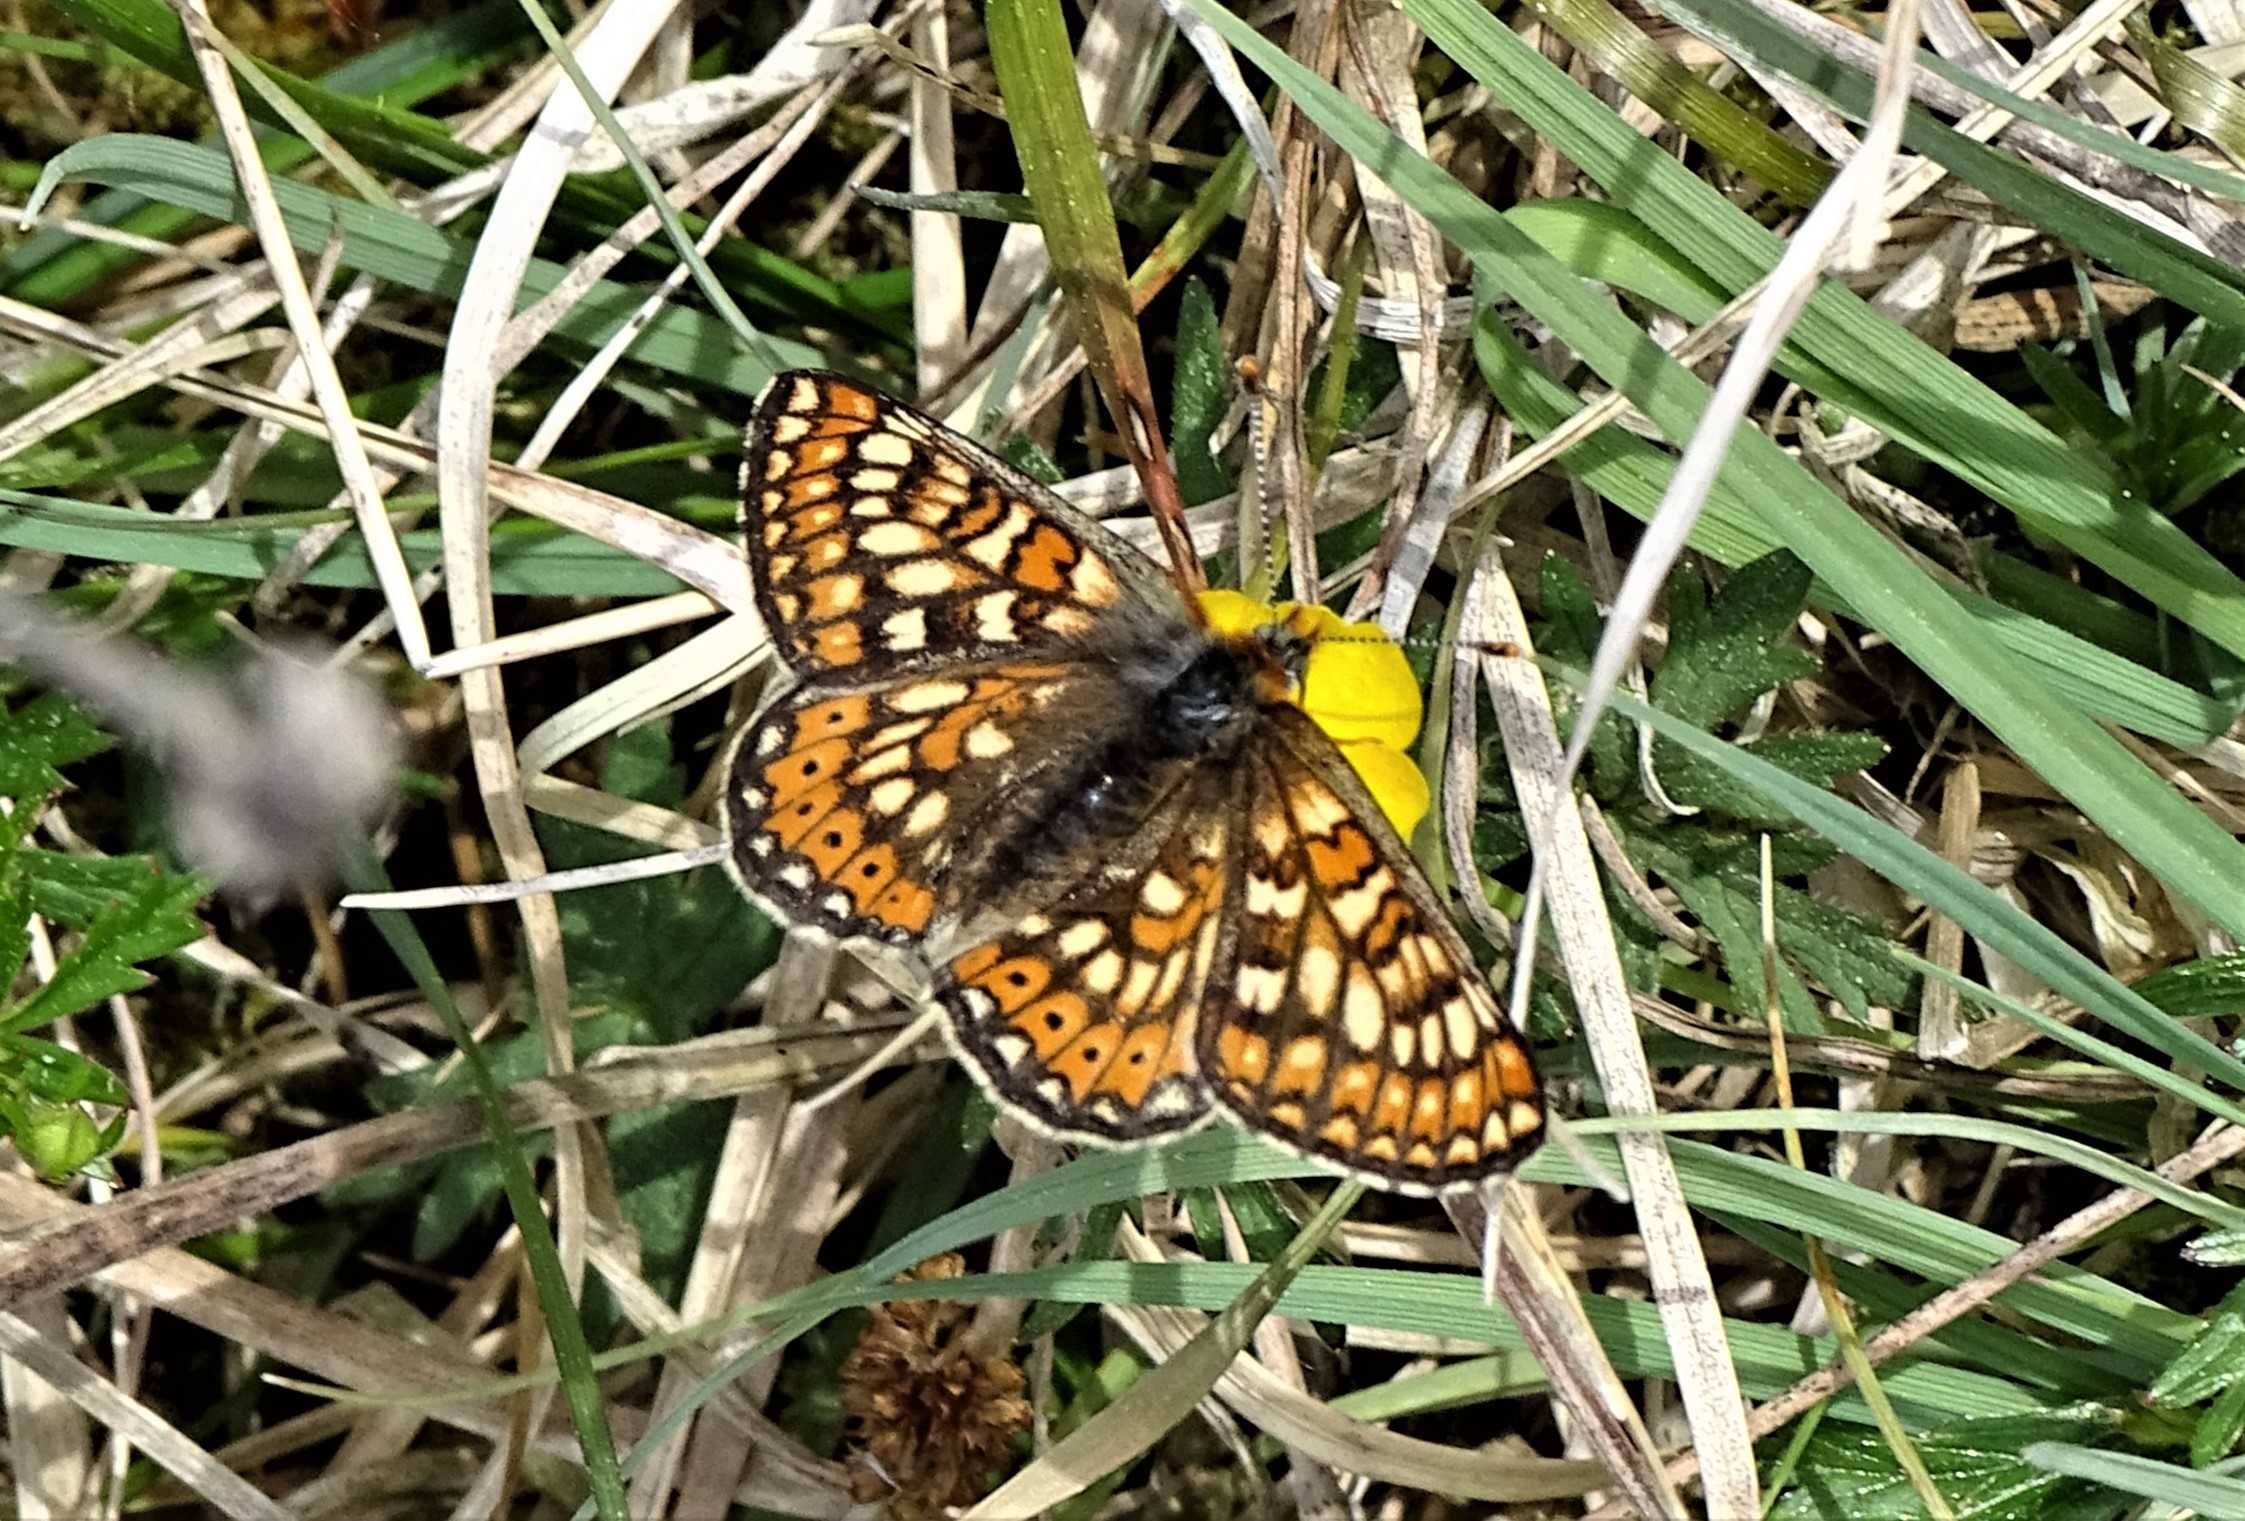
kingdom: Animalia
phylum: Arthropoda
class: Insecta
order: Lepidoptera
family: Nymphalidae
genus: Euphydryas
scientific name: Euphydryas aurinia
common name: Hedepletvinge
